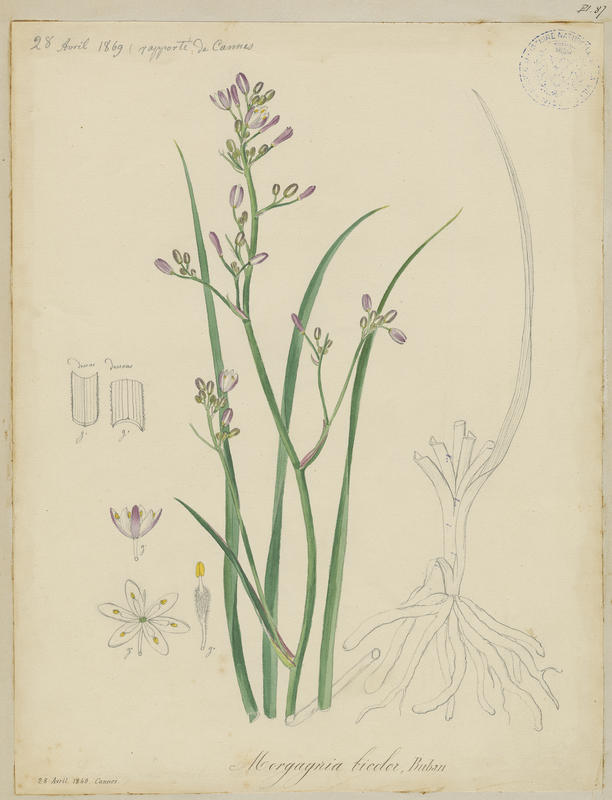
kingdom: Plantae
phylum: Tracheophyta
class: Liliopsida
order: Asparagales
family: Asphodelaceae
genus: Simethis
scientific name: Simethis mattiazzii
